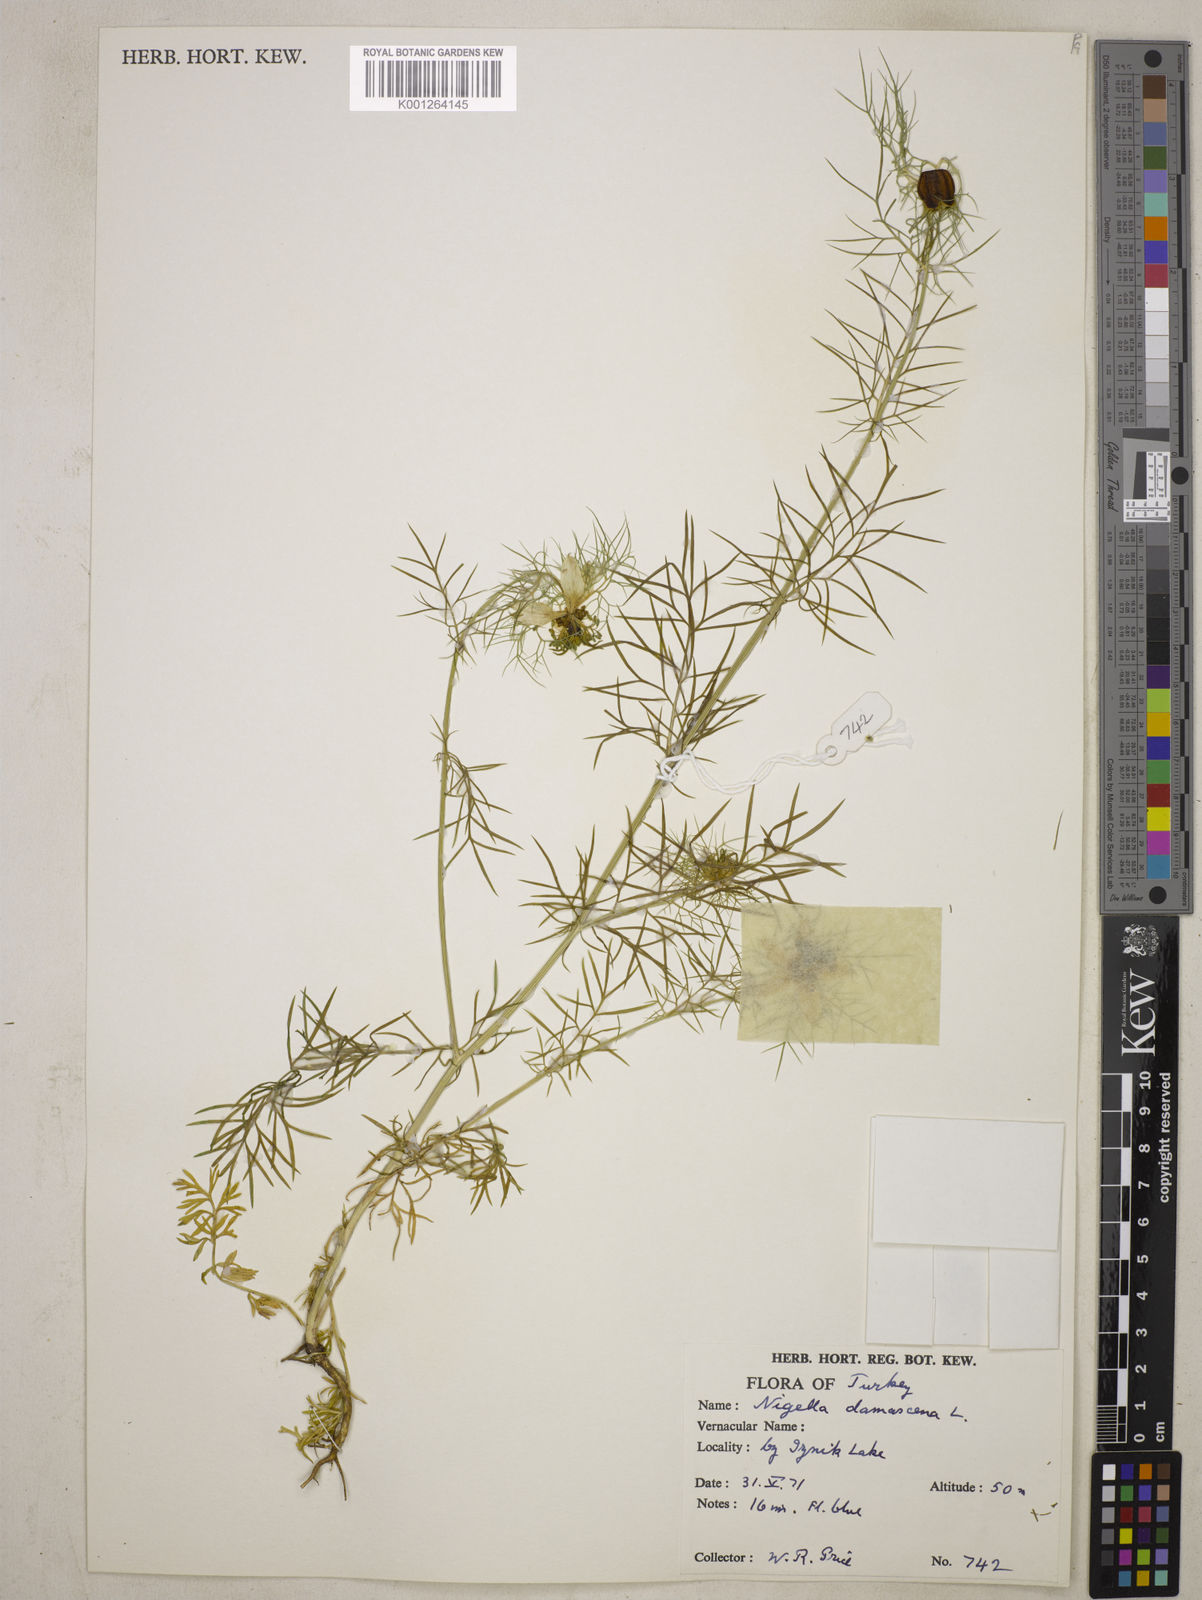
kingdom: Plantae
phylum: Tracheophyta
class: Magnoliopsida
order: Ranunculales
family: Ranunculaceae
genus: Nigella
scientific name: Nigella damascena
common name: Love-in-a-mist
